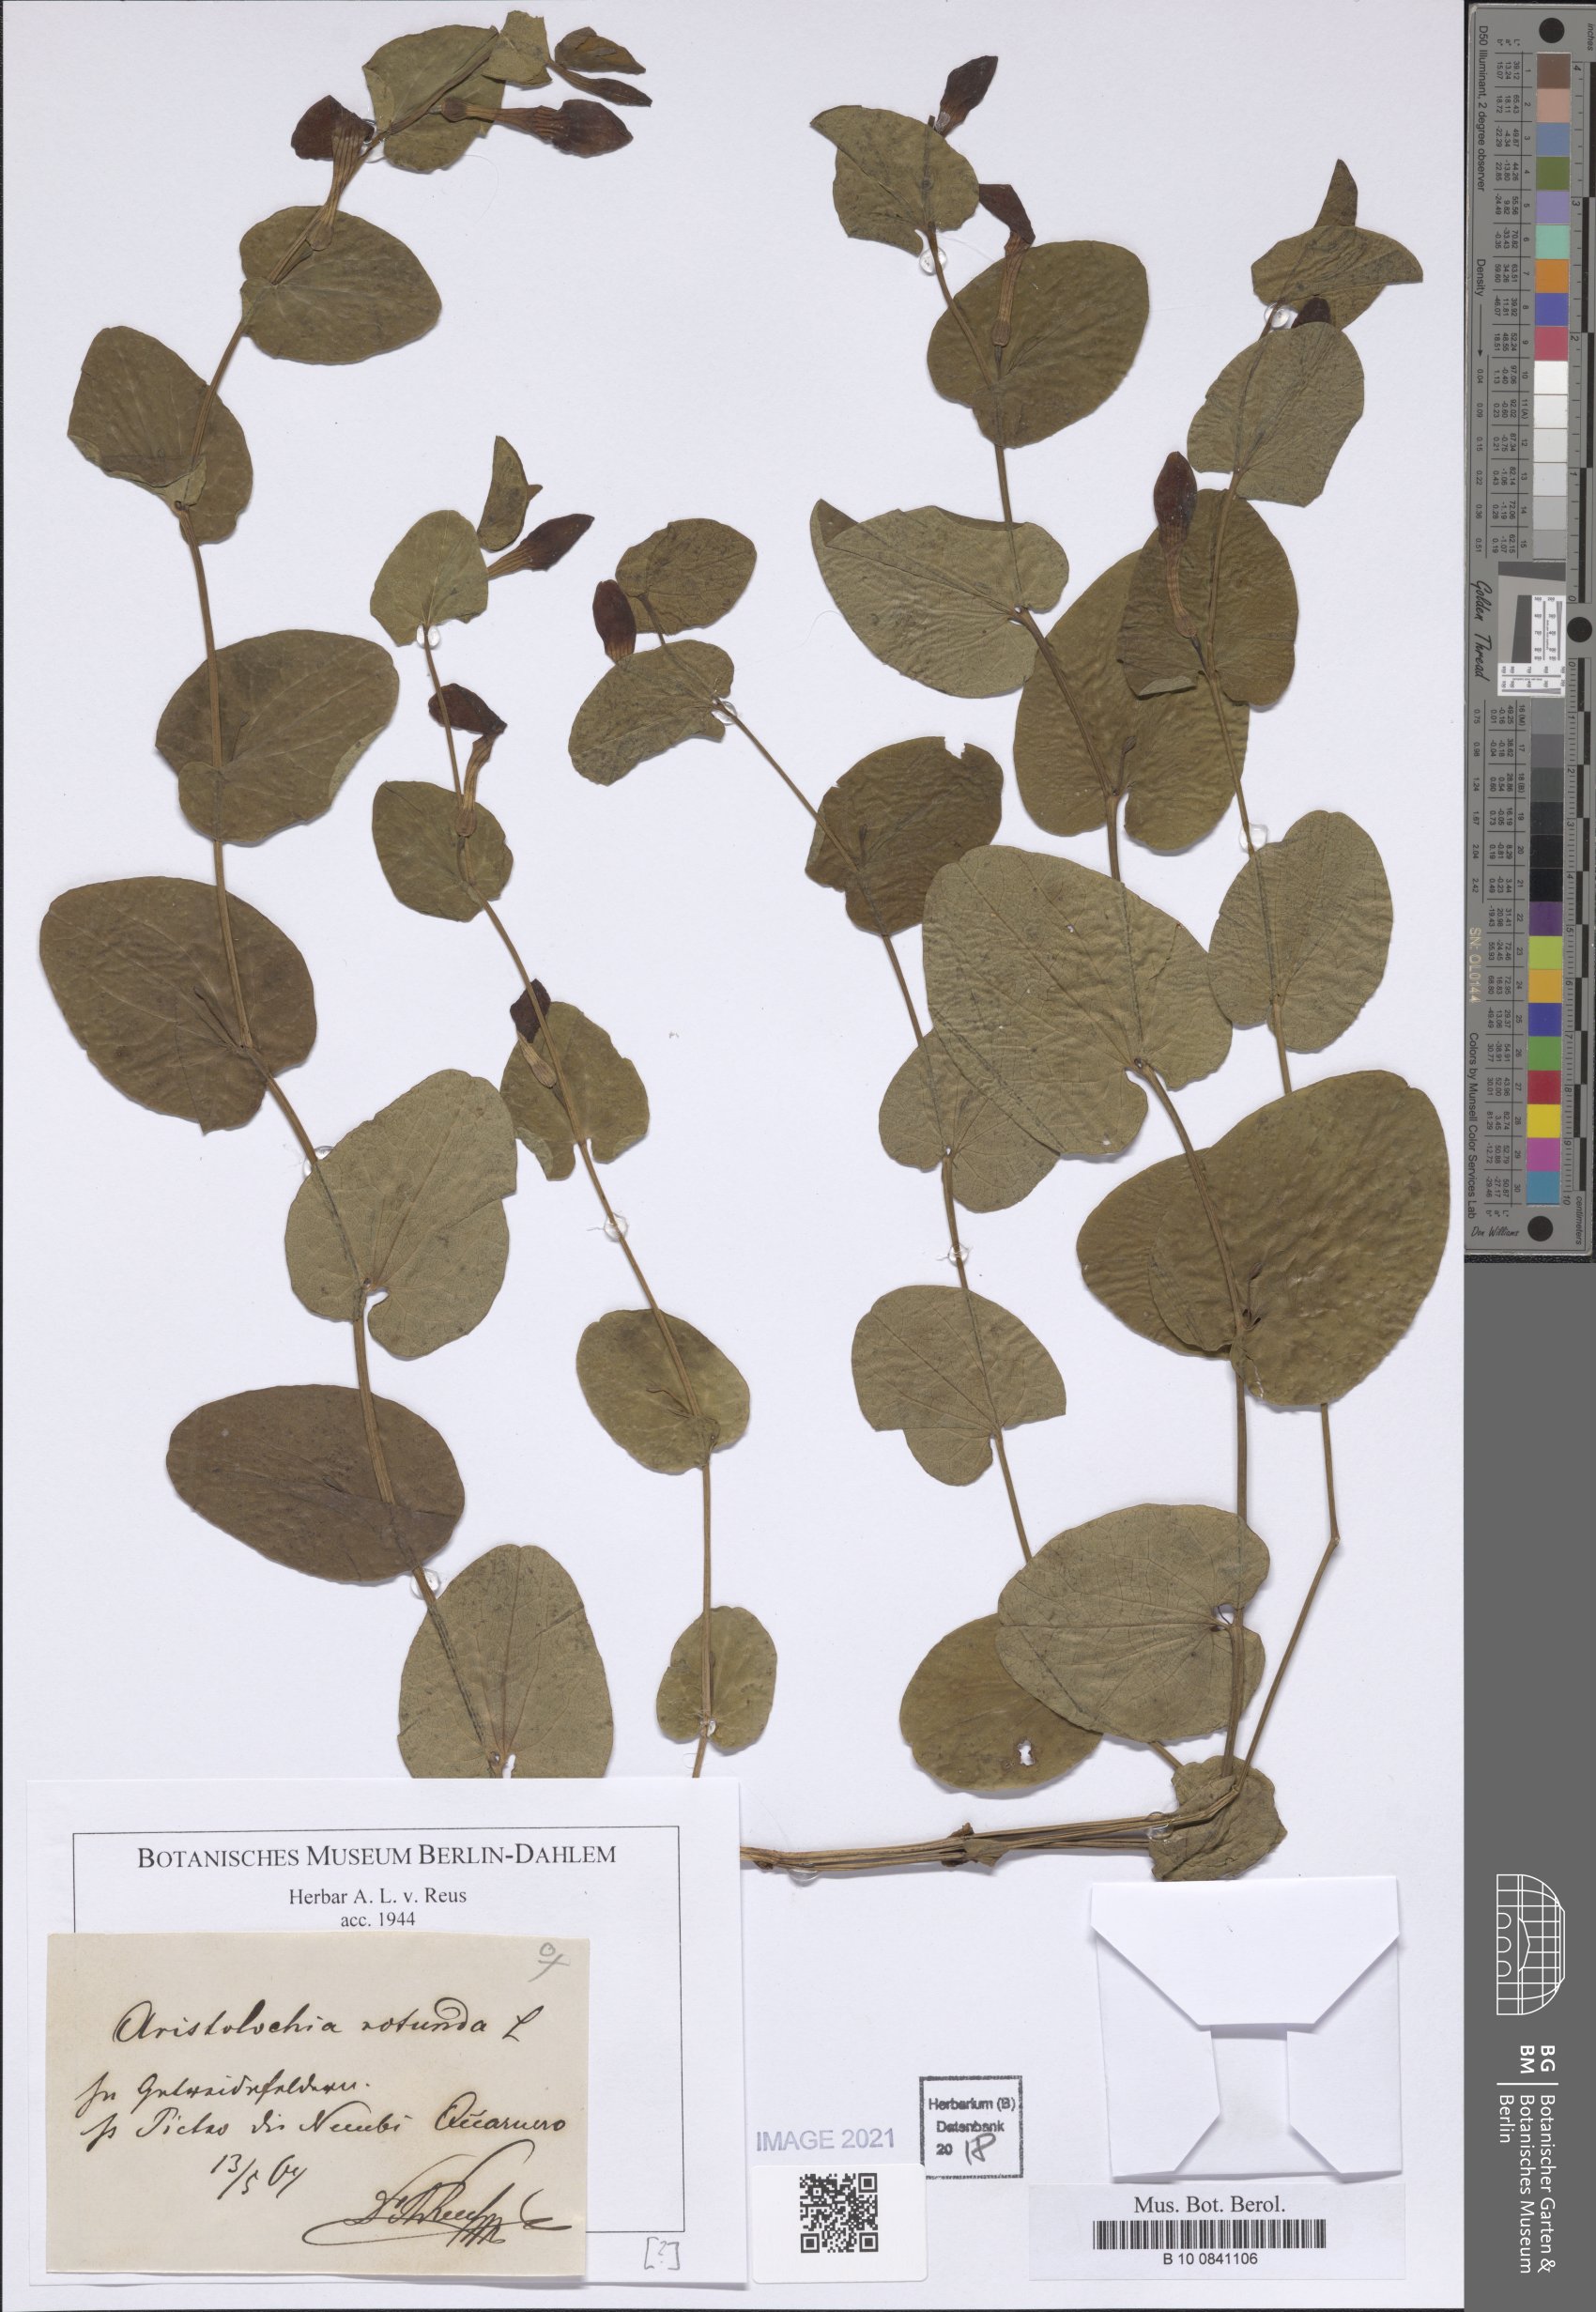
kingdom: Plantae
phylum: Tracheophyta
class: Magnoliopsida
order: Piperales
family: Aristolochiaceae
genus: Aristolochia
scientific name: Aristolochia rotunda
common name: Smearwort
